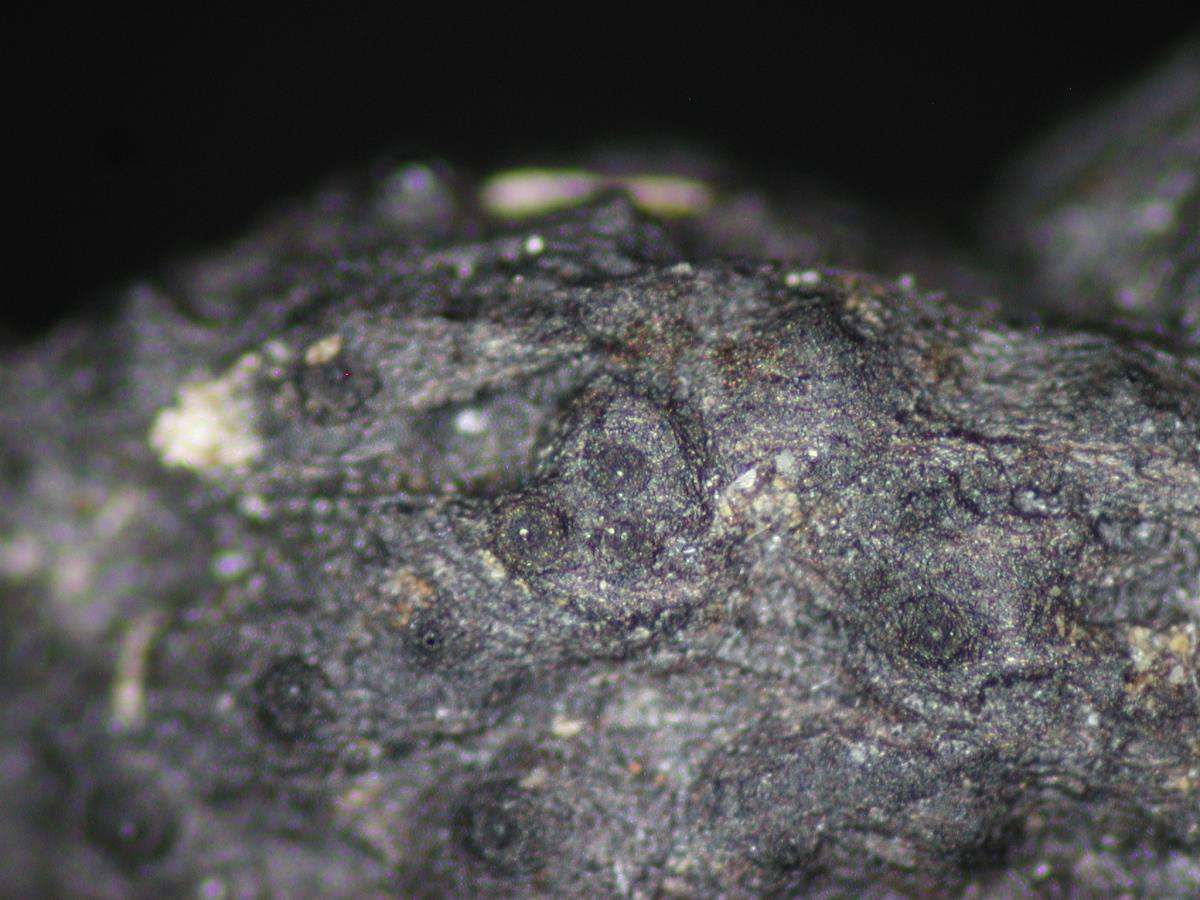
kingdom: Fungi
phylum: Ascomycota
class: Sordariomycetes
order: Xylariales
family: Xylariaceae
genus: Xylaria
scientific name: Xylaria hypoxylon
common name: Candle-snuff fungus
